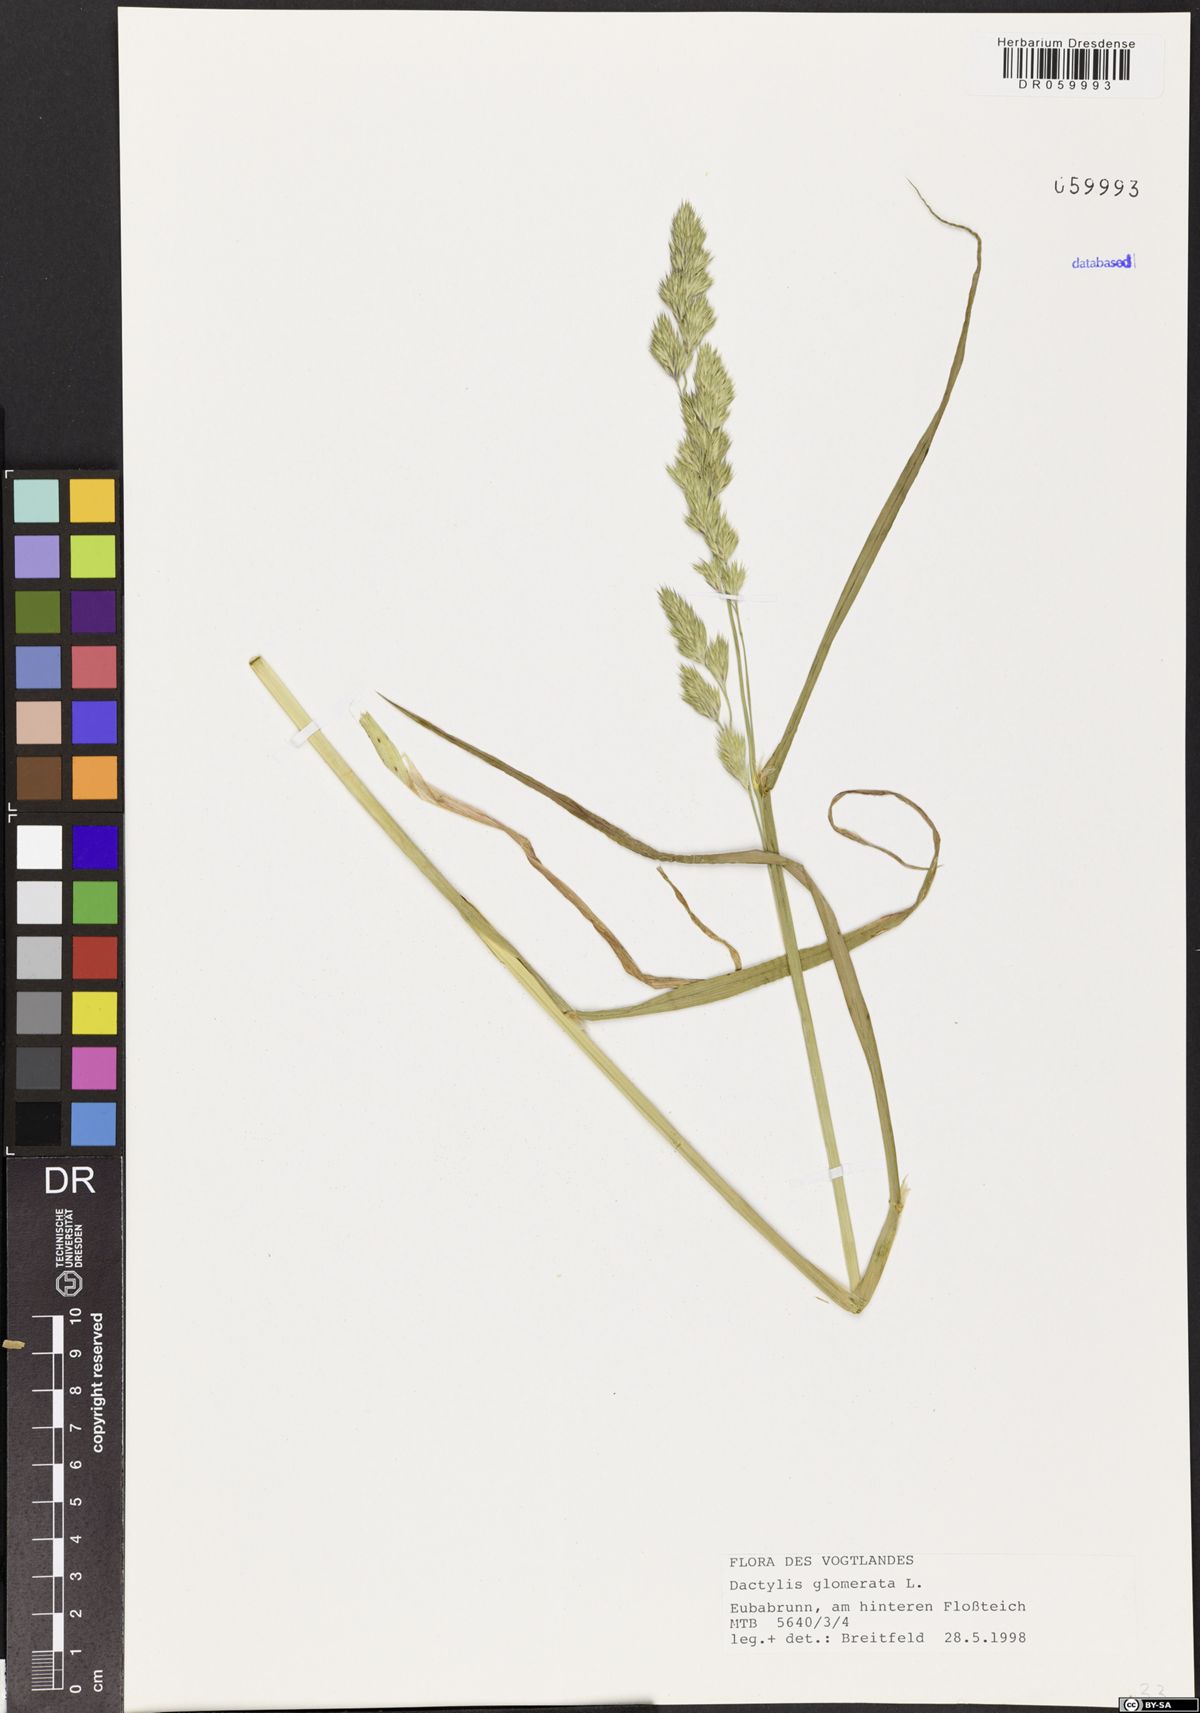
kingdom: Plantae
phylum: Tracheophyta
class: Liliopsida
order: Poales
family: Poaceae
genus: Dactylis
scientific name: Dactylis glomerata
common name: Orchardgrass
